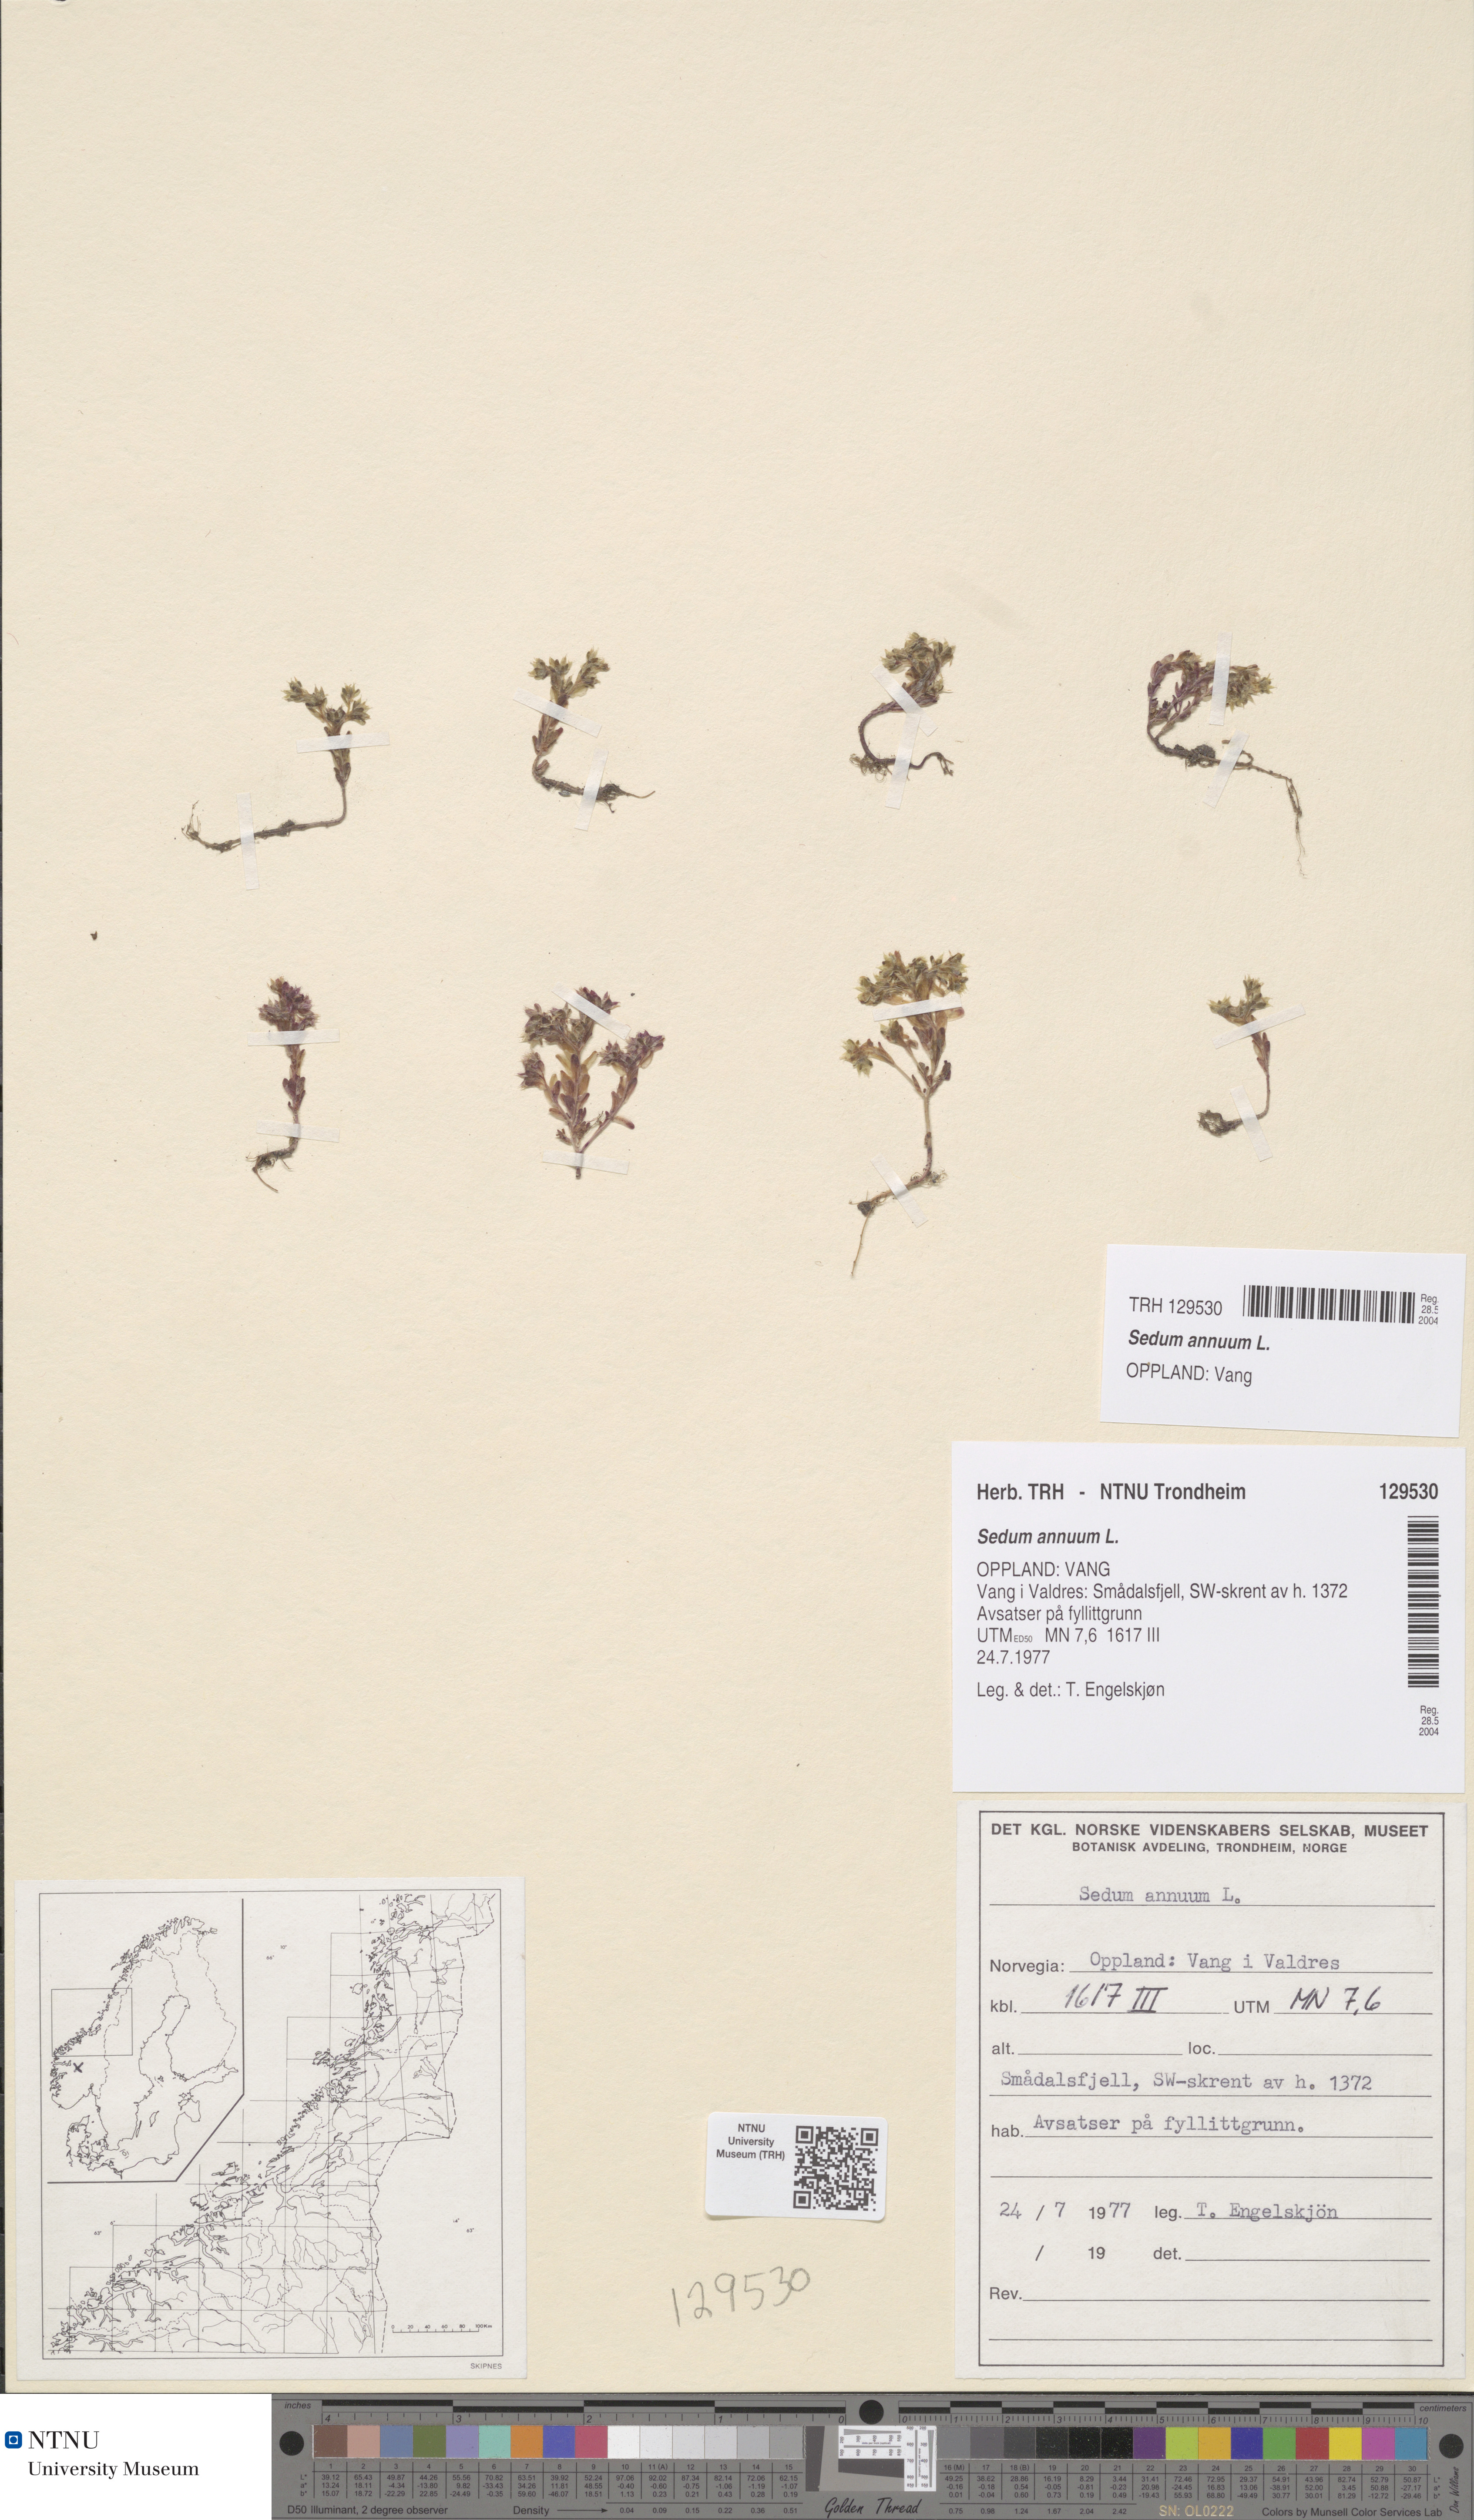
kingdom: Plantae
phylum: Tracheophyta
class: Magnoliopsida
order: Saxifragales
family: Crassulaceae
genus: Sedum
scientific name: Sedum annuum
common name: Annual stonecrop
